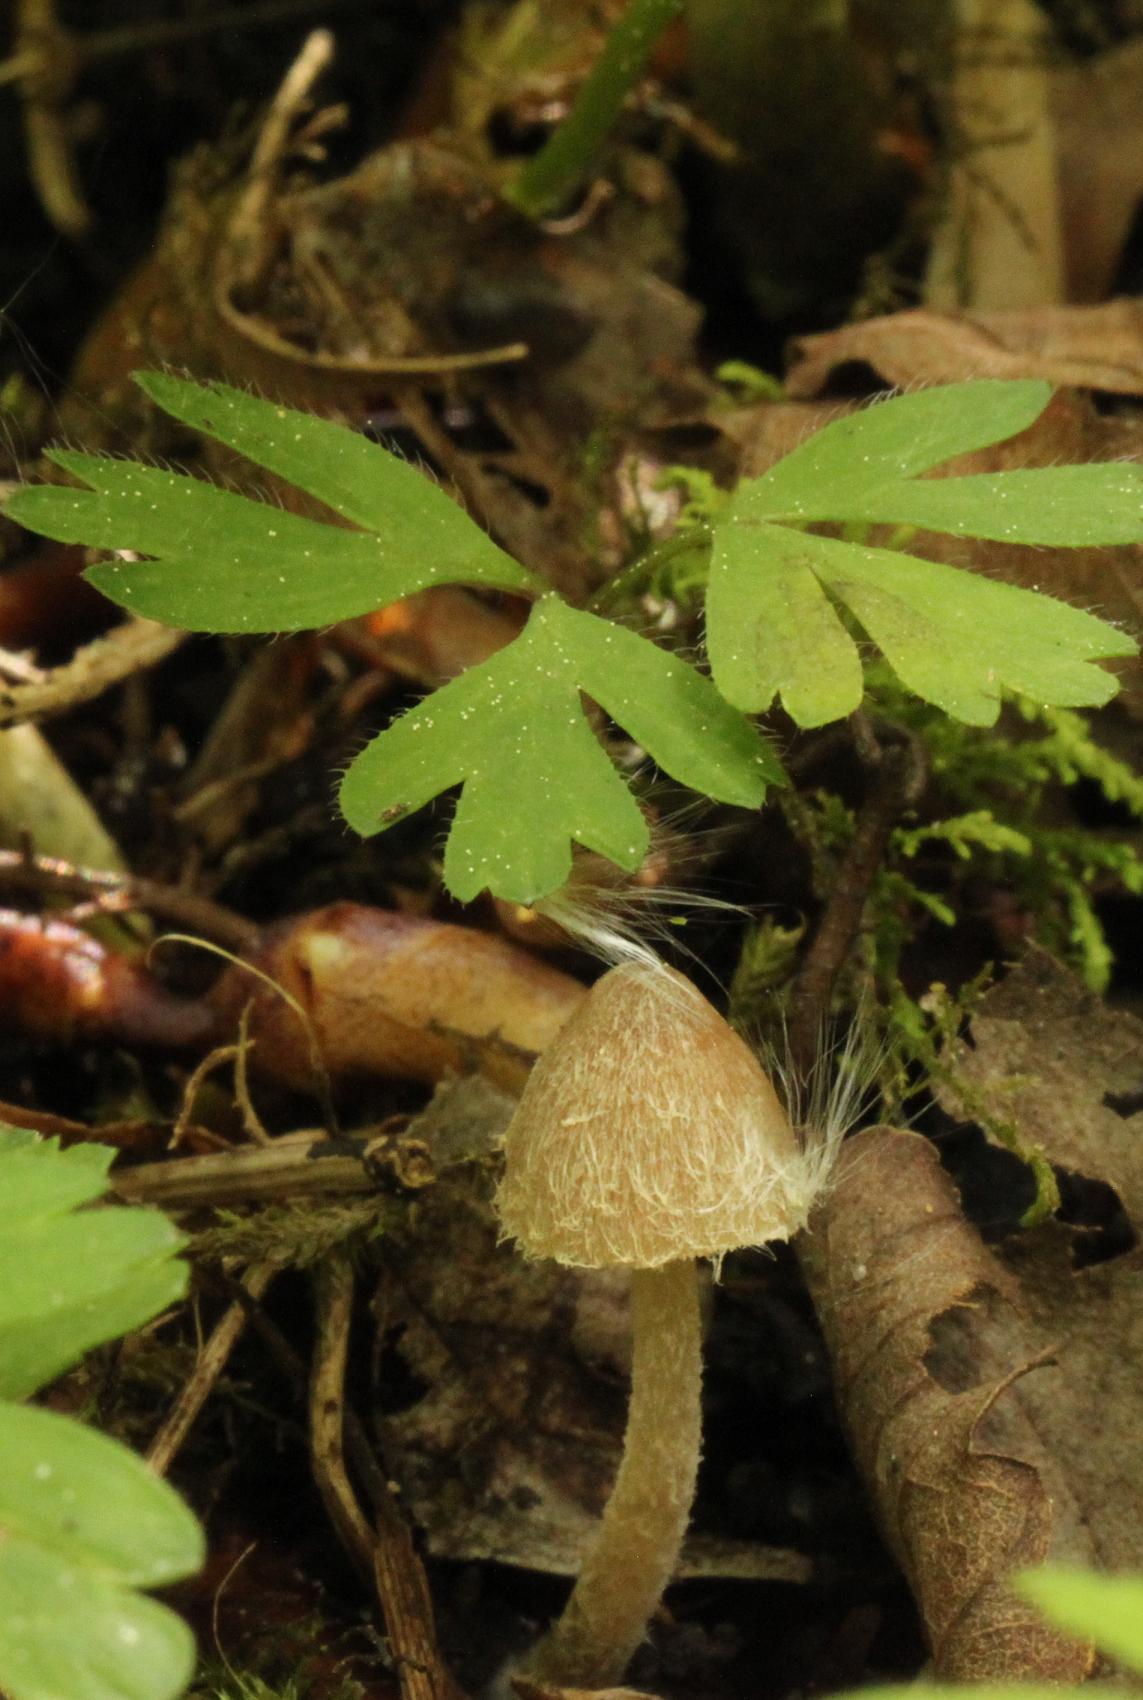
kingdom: Fungi
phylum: Basidiomycota
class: Agaricomycetes
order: Agaricales
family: Psathyrellaceae
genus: Coprinopsis
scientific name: Coprinopsis canoceps
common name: gråhåret blækhat
